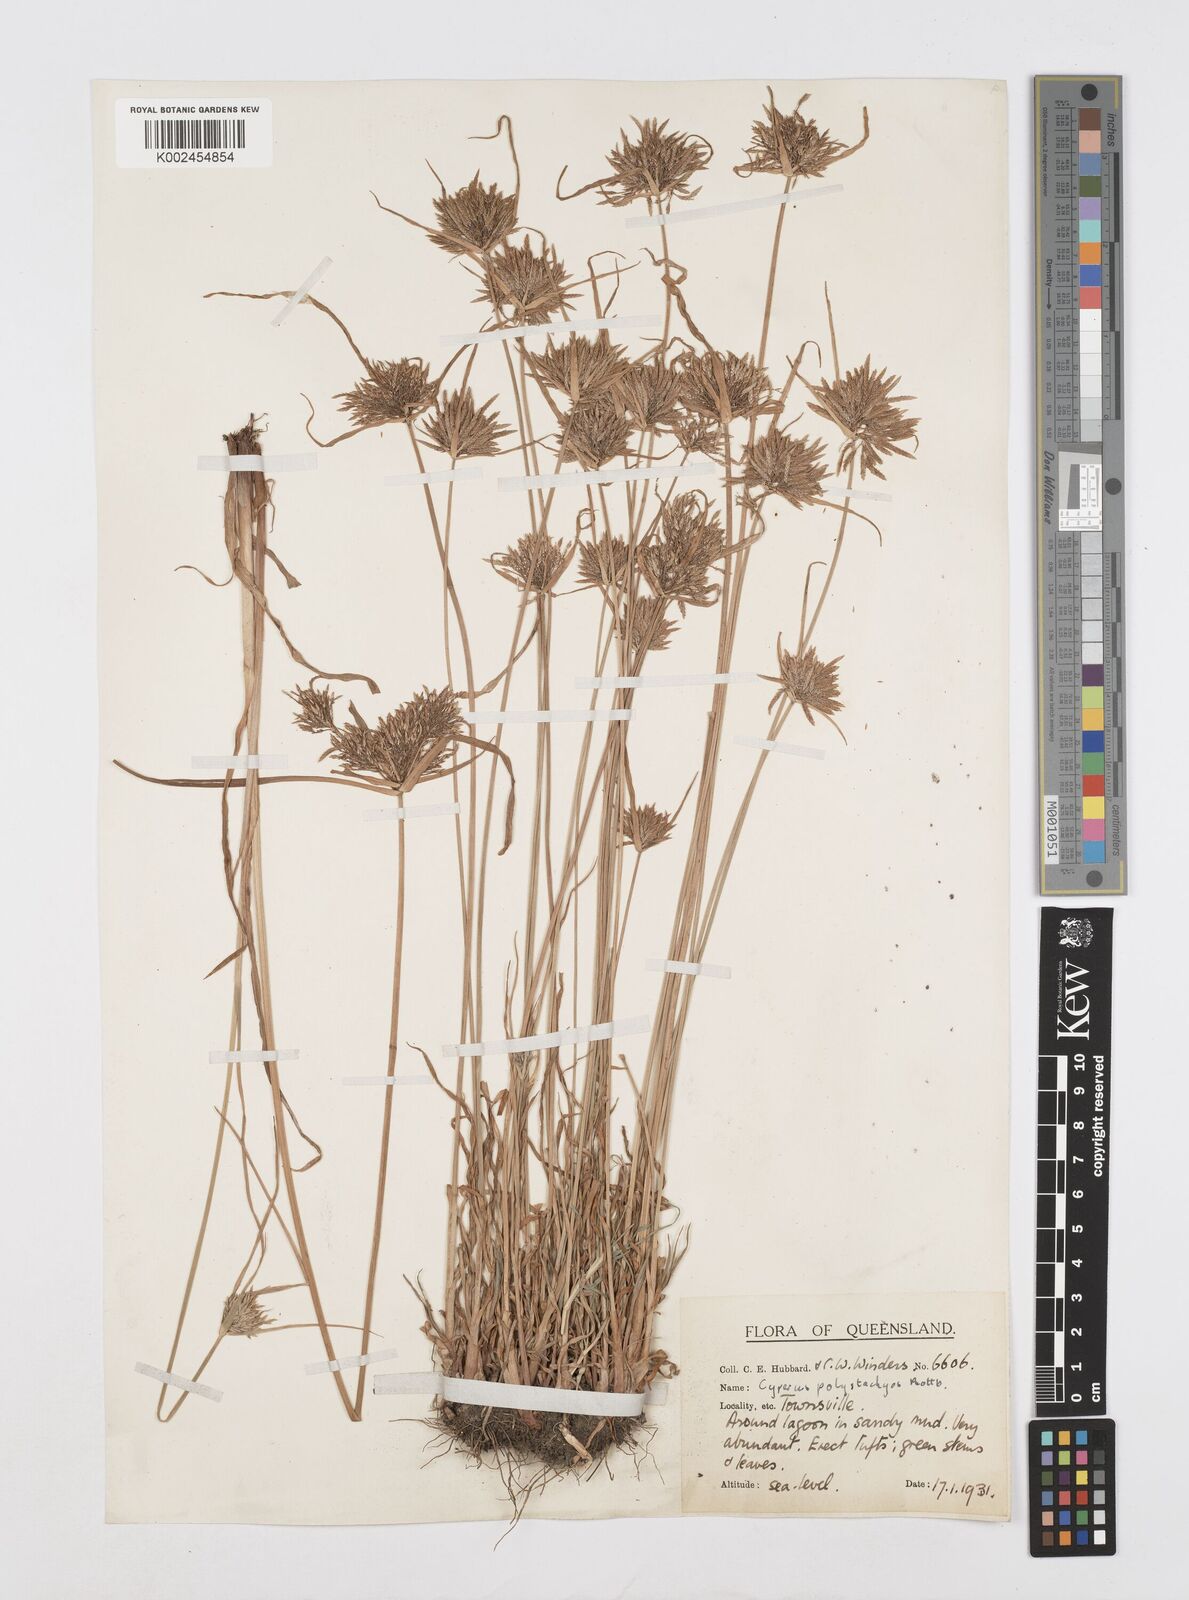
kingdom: Plantae
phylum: Tracheophyta
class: Liliopsida
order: Poales
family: Cyperaceae
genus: Cyperus
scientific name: Cyperus polystachyos
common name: Bunchy flat sedge
